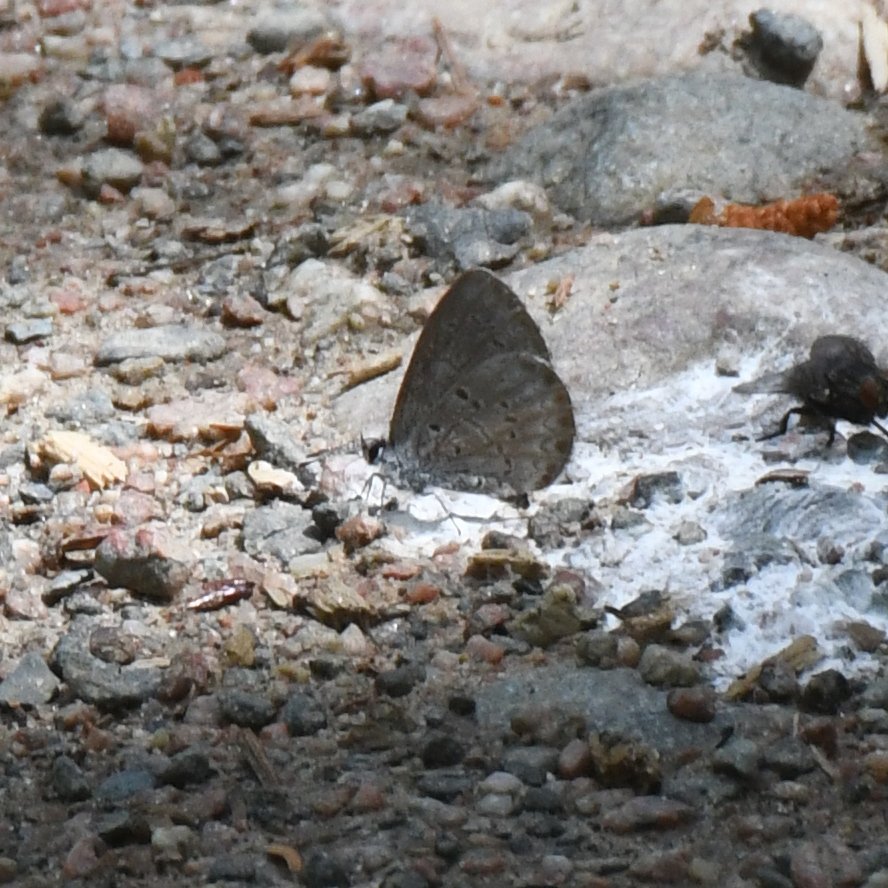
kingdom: Animalia
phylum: Arthropoda
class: Insecta
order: Lepidoptera
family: Lycaenidae
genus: Celastrina
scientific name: Celastrina lucia
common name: Northern Spring Azure
